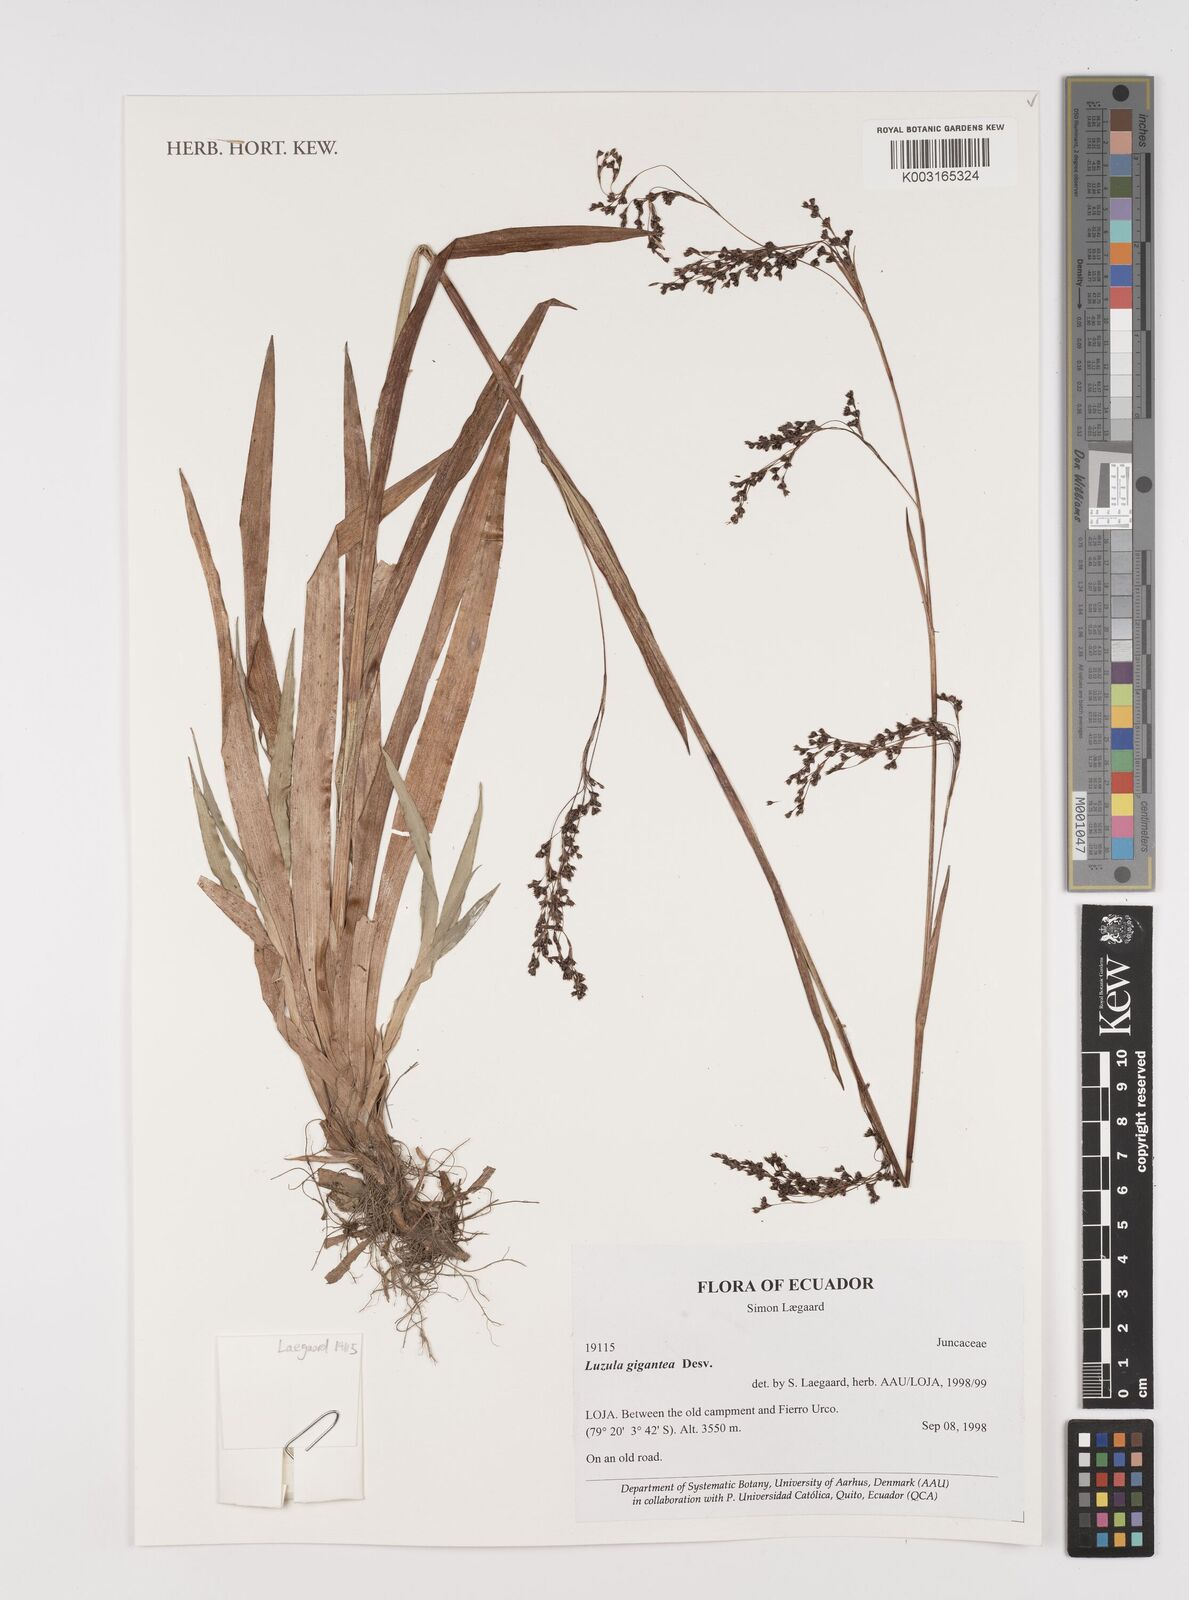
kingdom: Plantae
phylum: Tracheophyta
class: Liliopsida
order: Poales
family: Juncaceae
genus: Luzula
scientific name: Luzula gigantea
